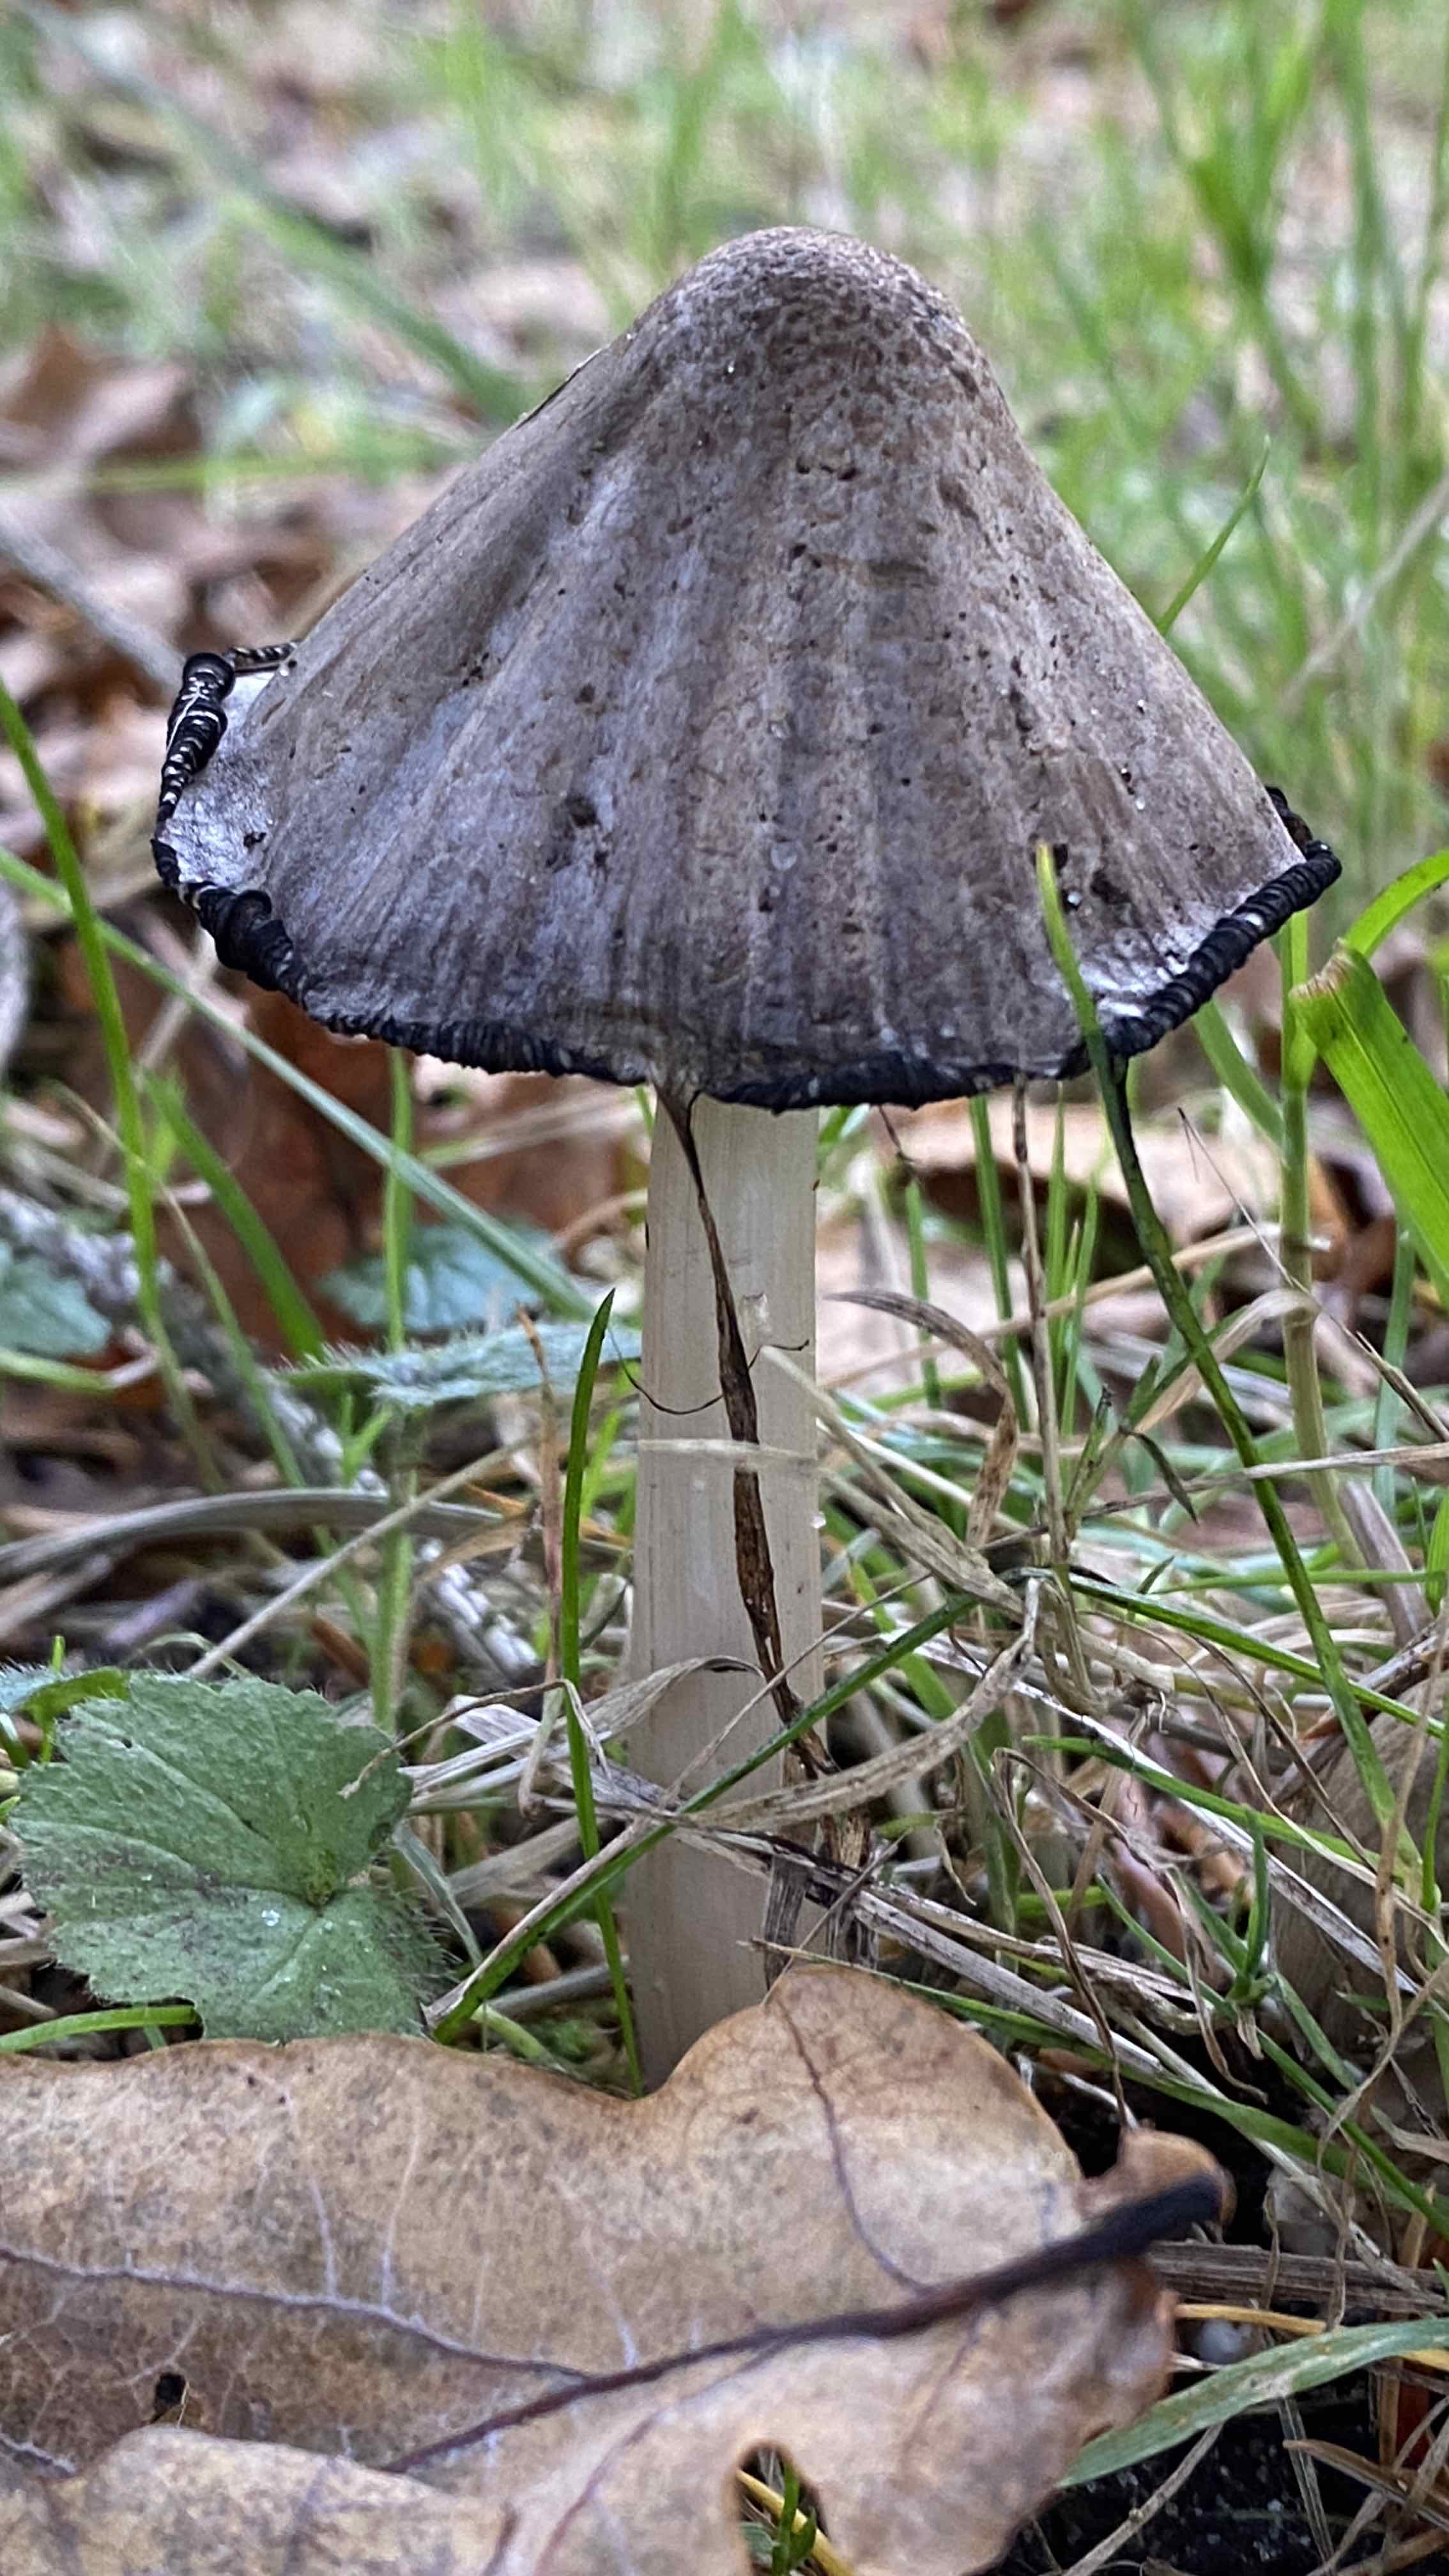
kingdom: Fungi
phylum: Basidiomycota
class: Agaricomycetes
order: Agaricales
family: Psathyrellaceae
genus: Coprinopsis
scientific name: Coprinopsis atramentaria
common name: almindelig blækhat
